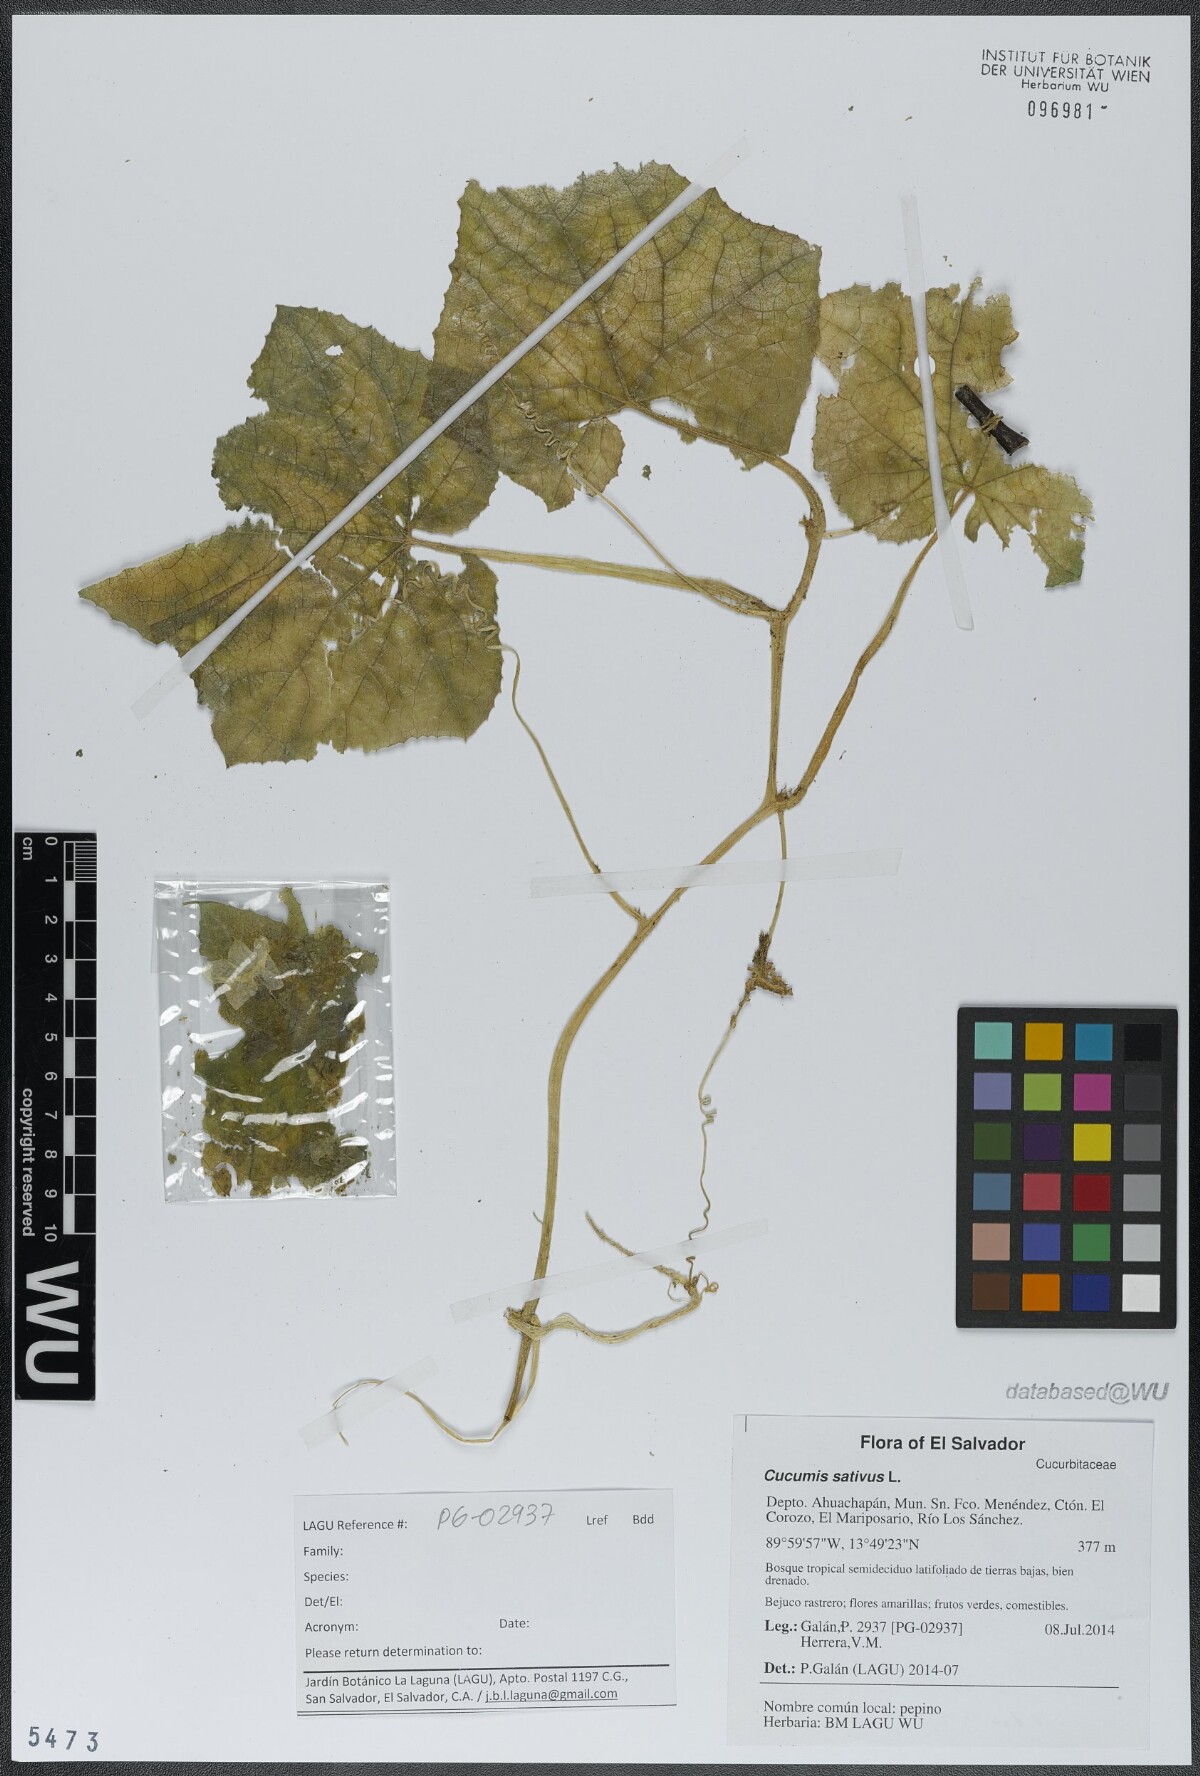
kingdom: Plantae
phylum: Tracheophyta
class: Magnoliopsida
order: Cucurbitales
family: Cucurbitaceae
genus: Cucumis
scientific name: Cucumis sativus
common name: Cucumber
